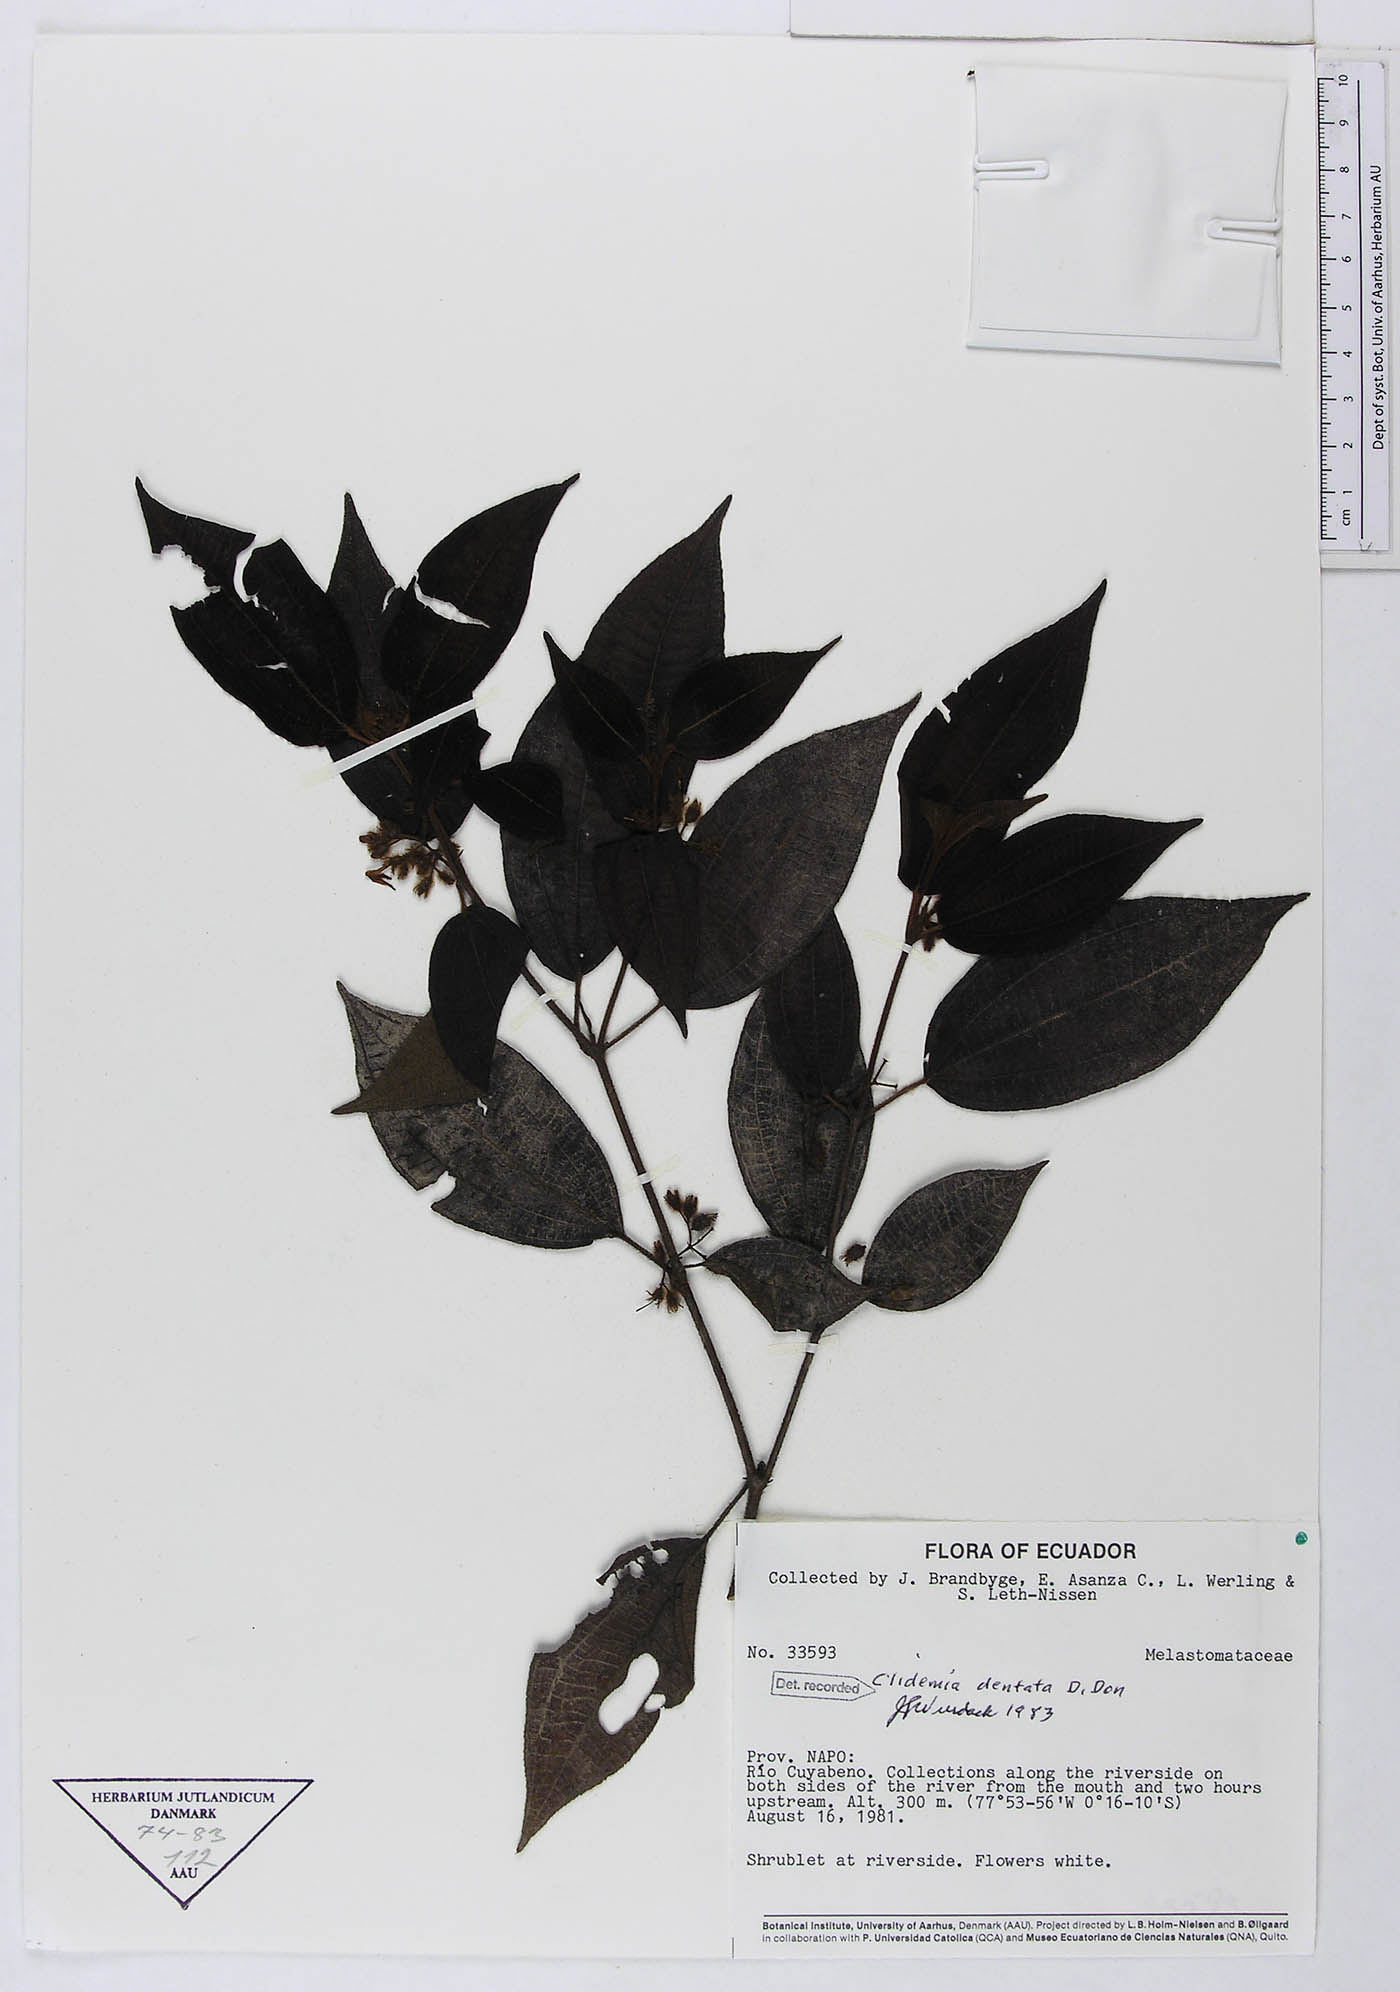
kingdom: Plantae
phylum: Tracheophyta
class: Magnoliopsida
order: Myrtales
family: Melastomataceae
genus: Miconia
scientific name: Miconia dentata
